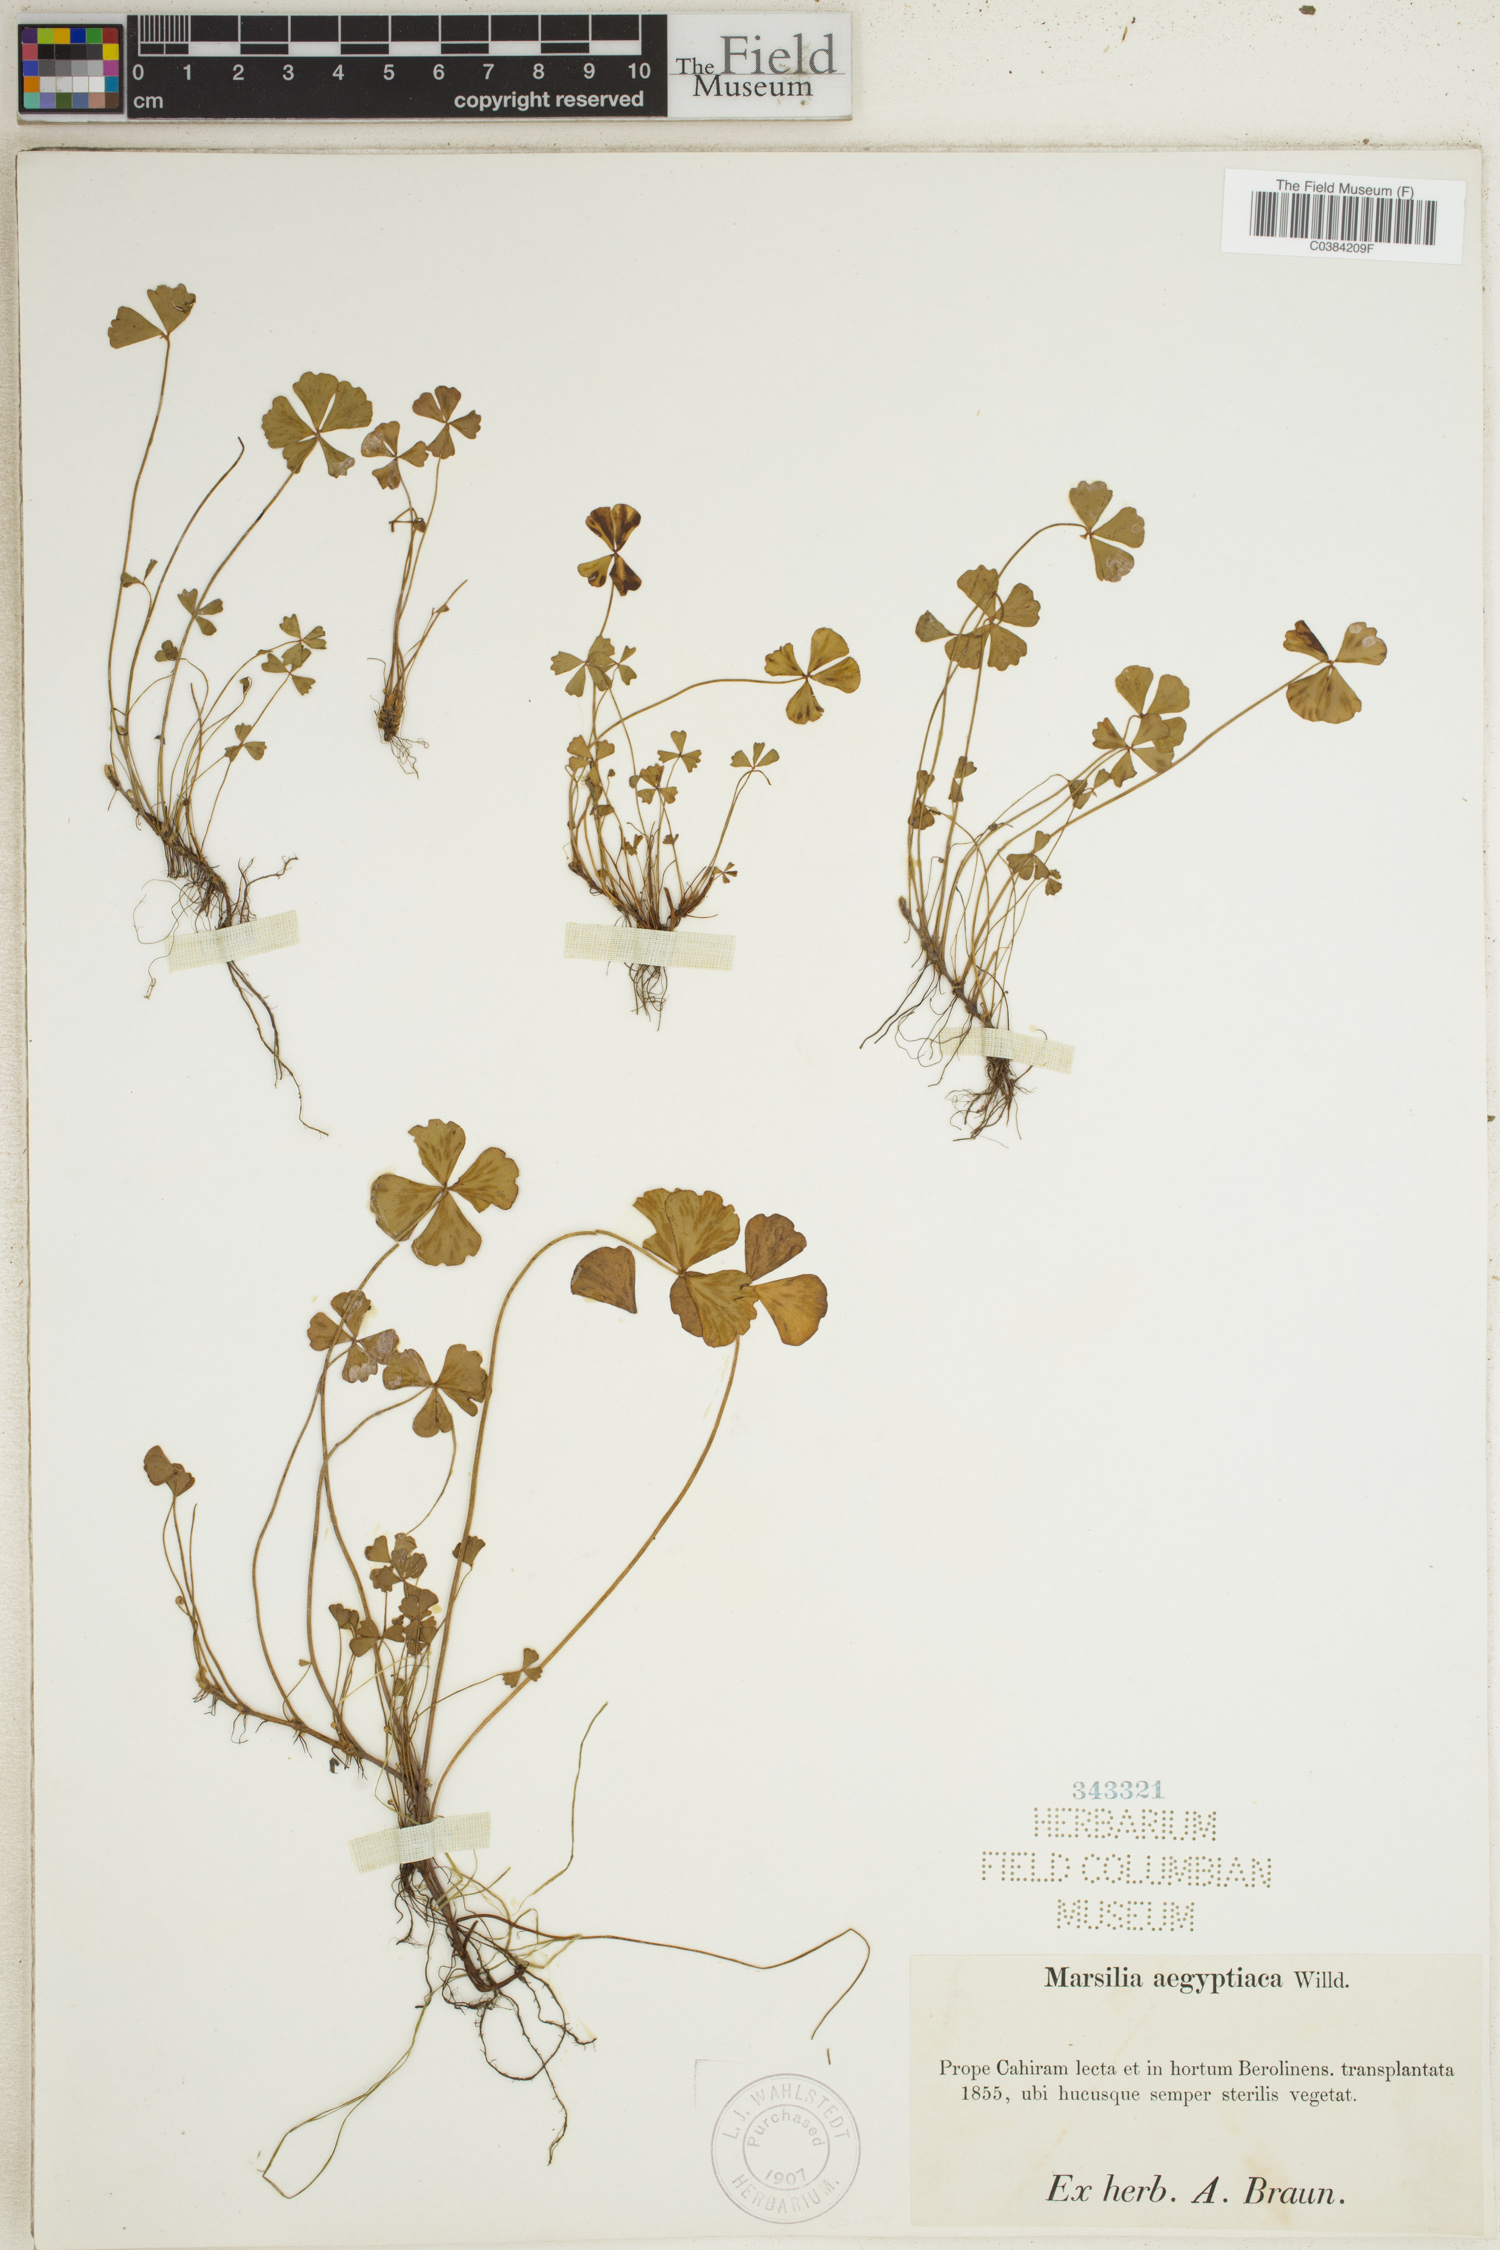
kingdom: Plantae
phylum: Tracheophyta
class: Polypodiopsida
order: Salviniales
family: Marsileaceae
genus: Marsilea
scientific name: Marsilea aegyptica
